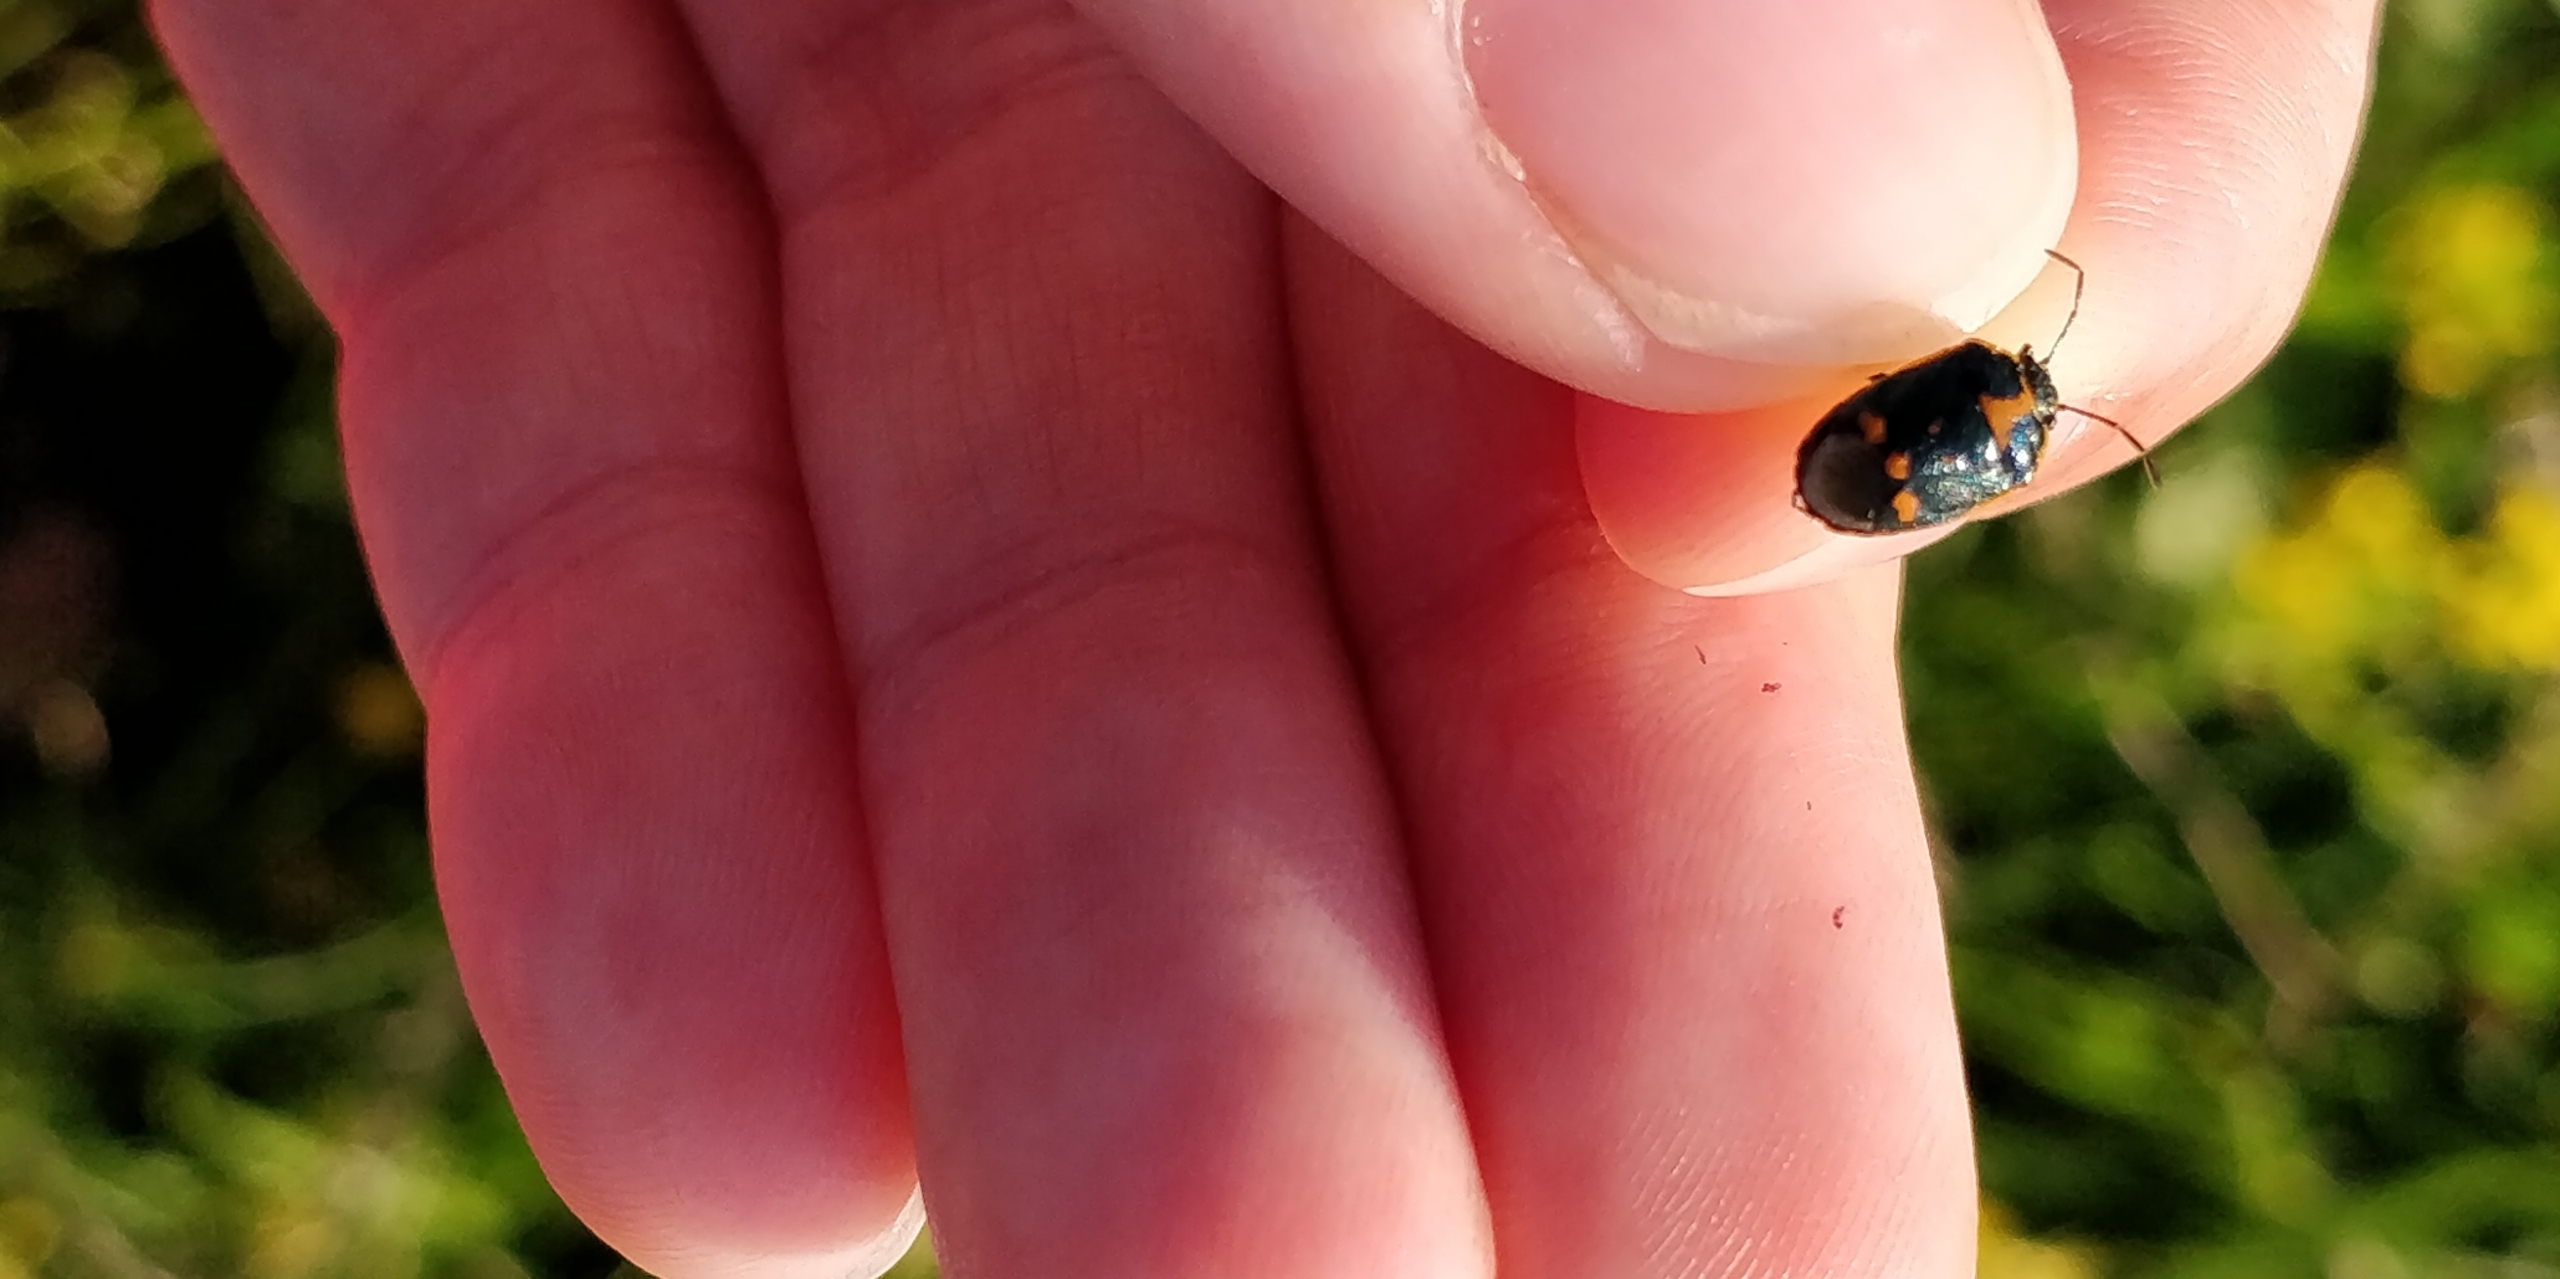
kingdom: Animalia
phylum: Arthropoda
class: Insecta
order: Hemiptera
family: Pentatomidae
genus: Eurydema
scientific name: Eurydema oleracea
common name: Almindelig kåltæge
